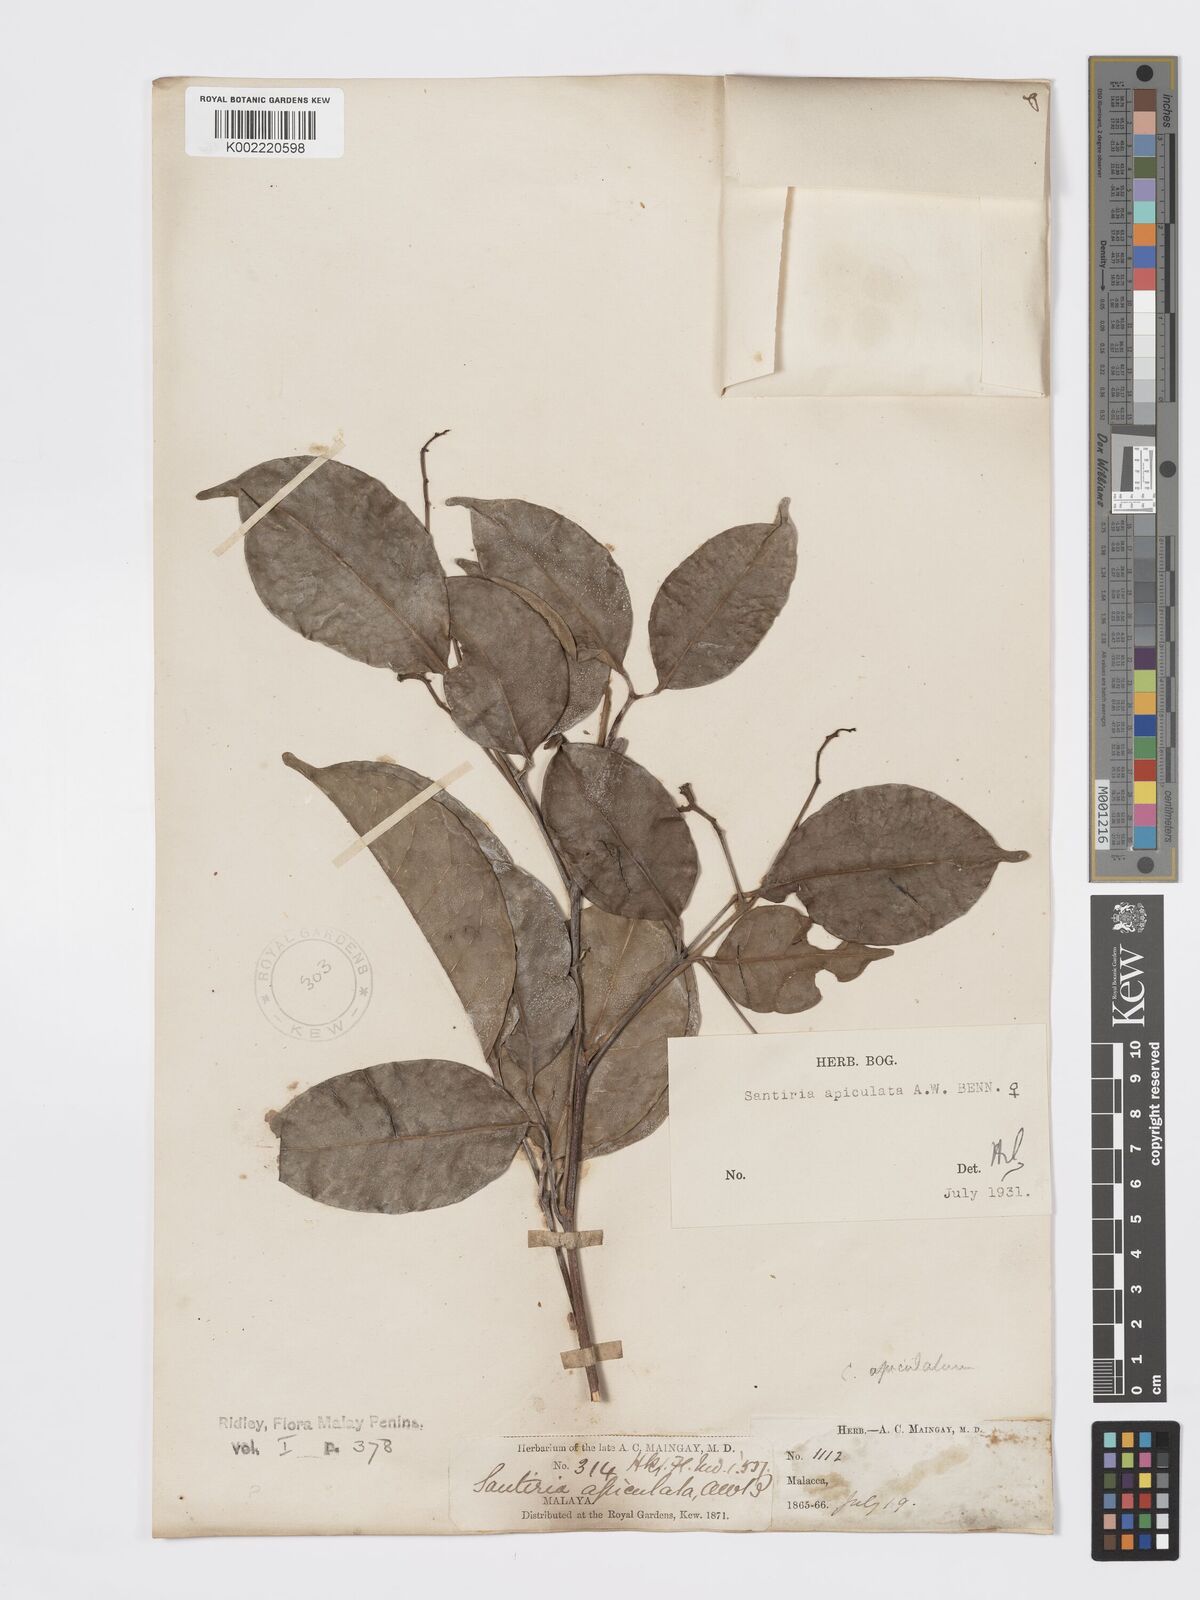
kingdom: Plantae
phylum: Tracheophyta
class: Magnoliopsida
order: Sapindales
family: Burseraceae
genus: Santiria
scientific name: Santiria apiculata
